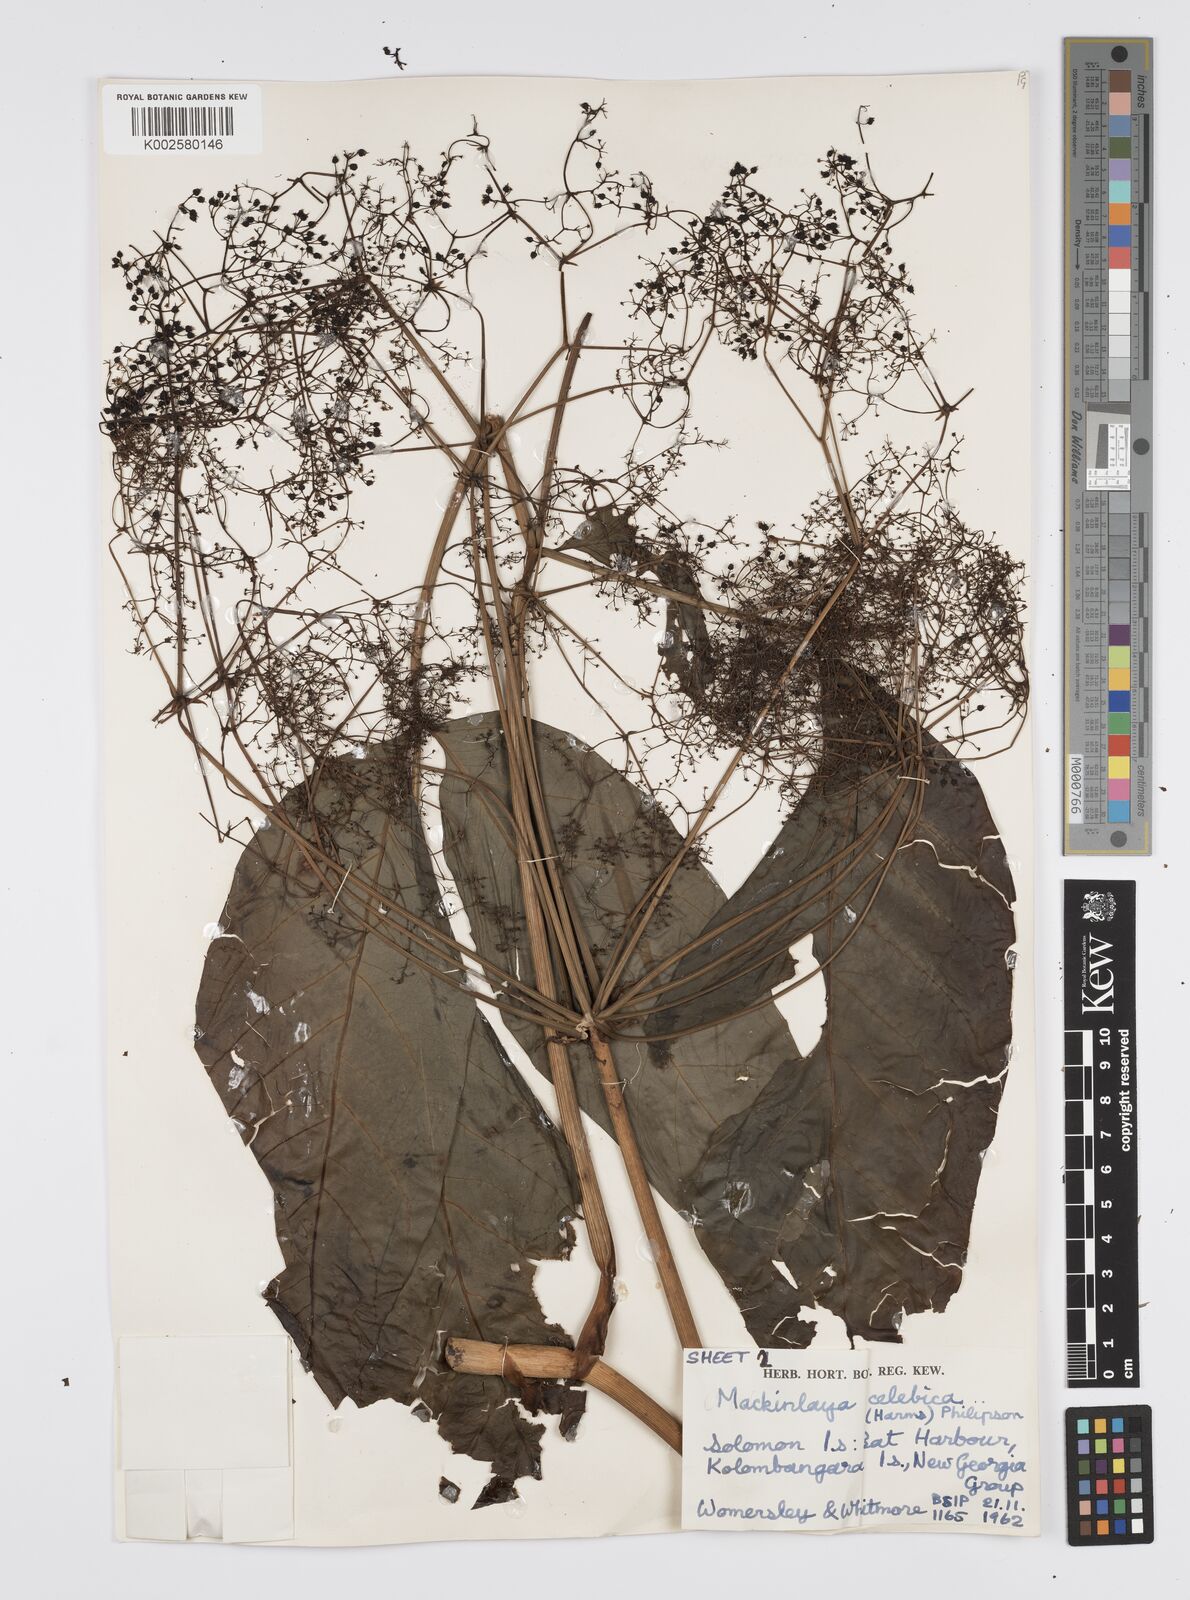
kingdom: Plantae
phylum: Tracheophyta
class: Magnoliopsida
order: Apiales
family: Apiaceae
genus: Mackinlaya
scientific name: Mackinlaya celebica
